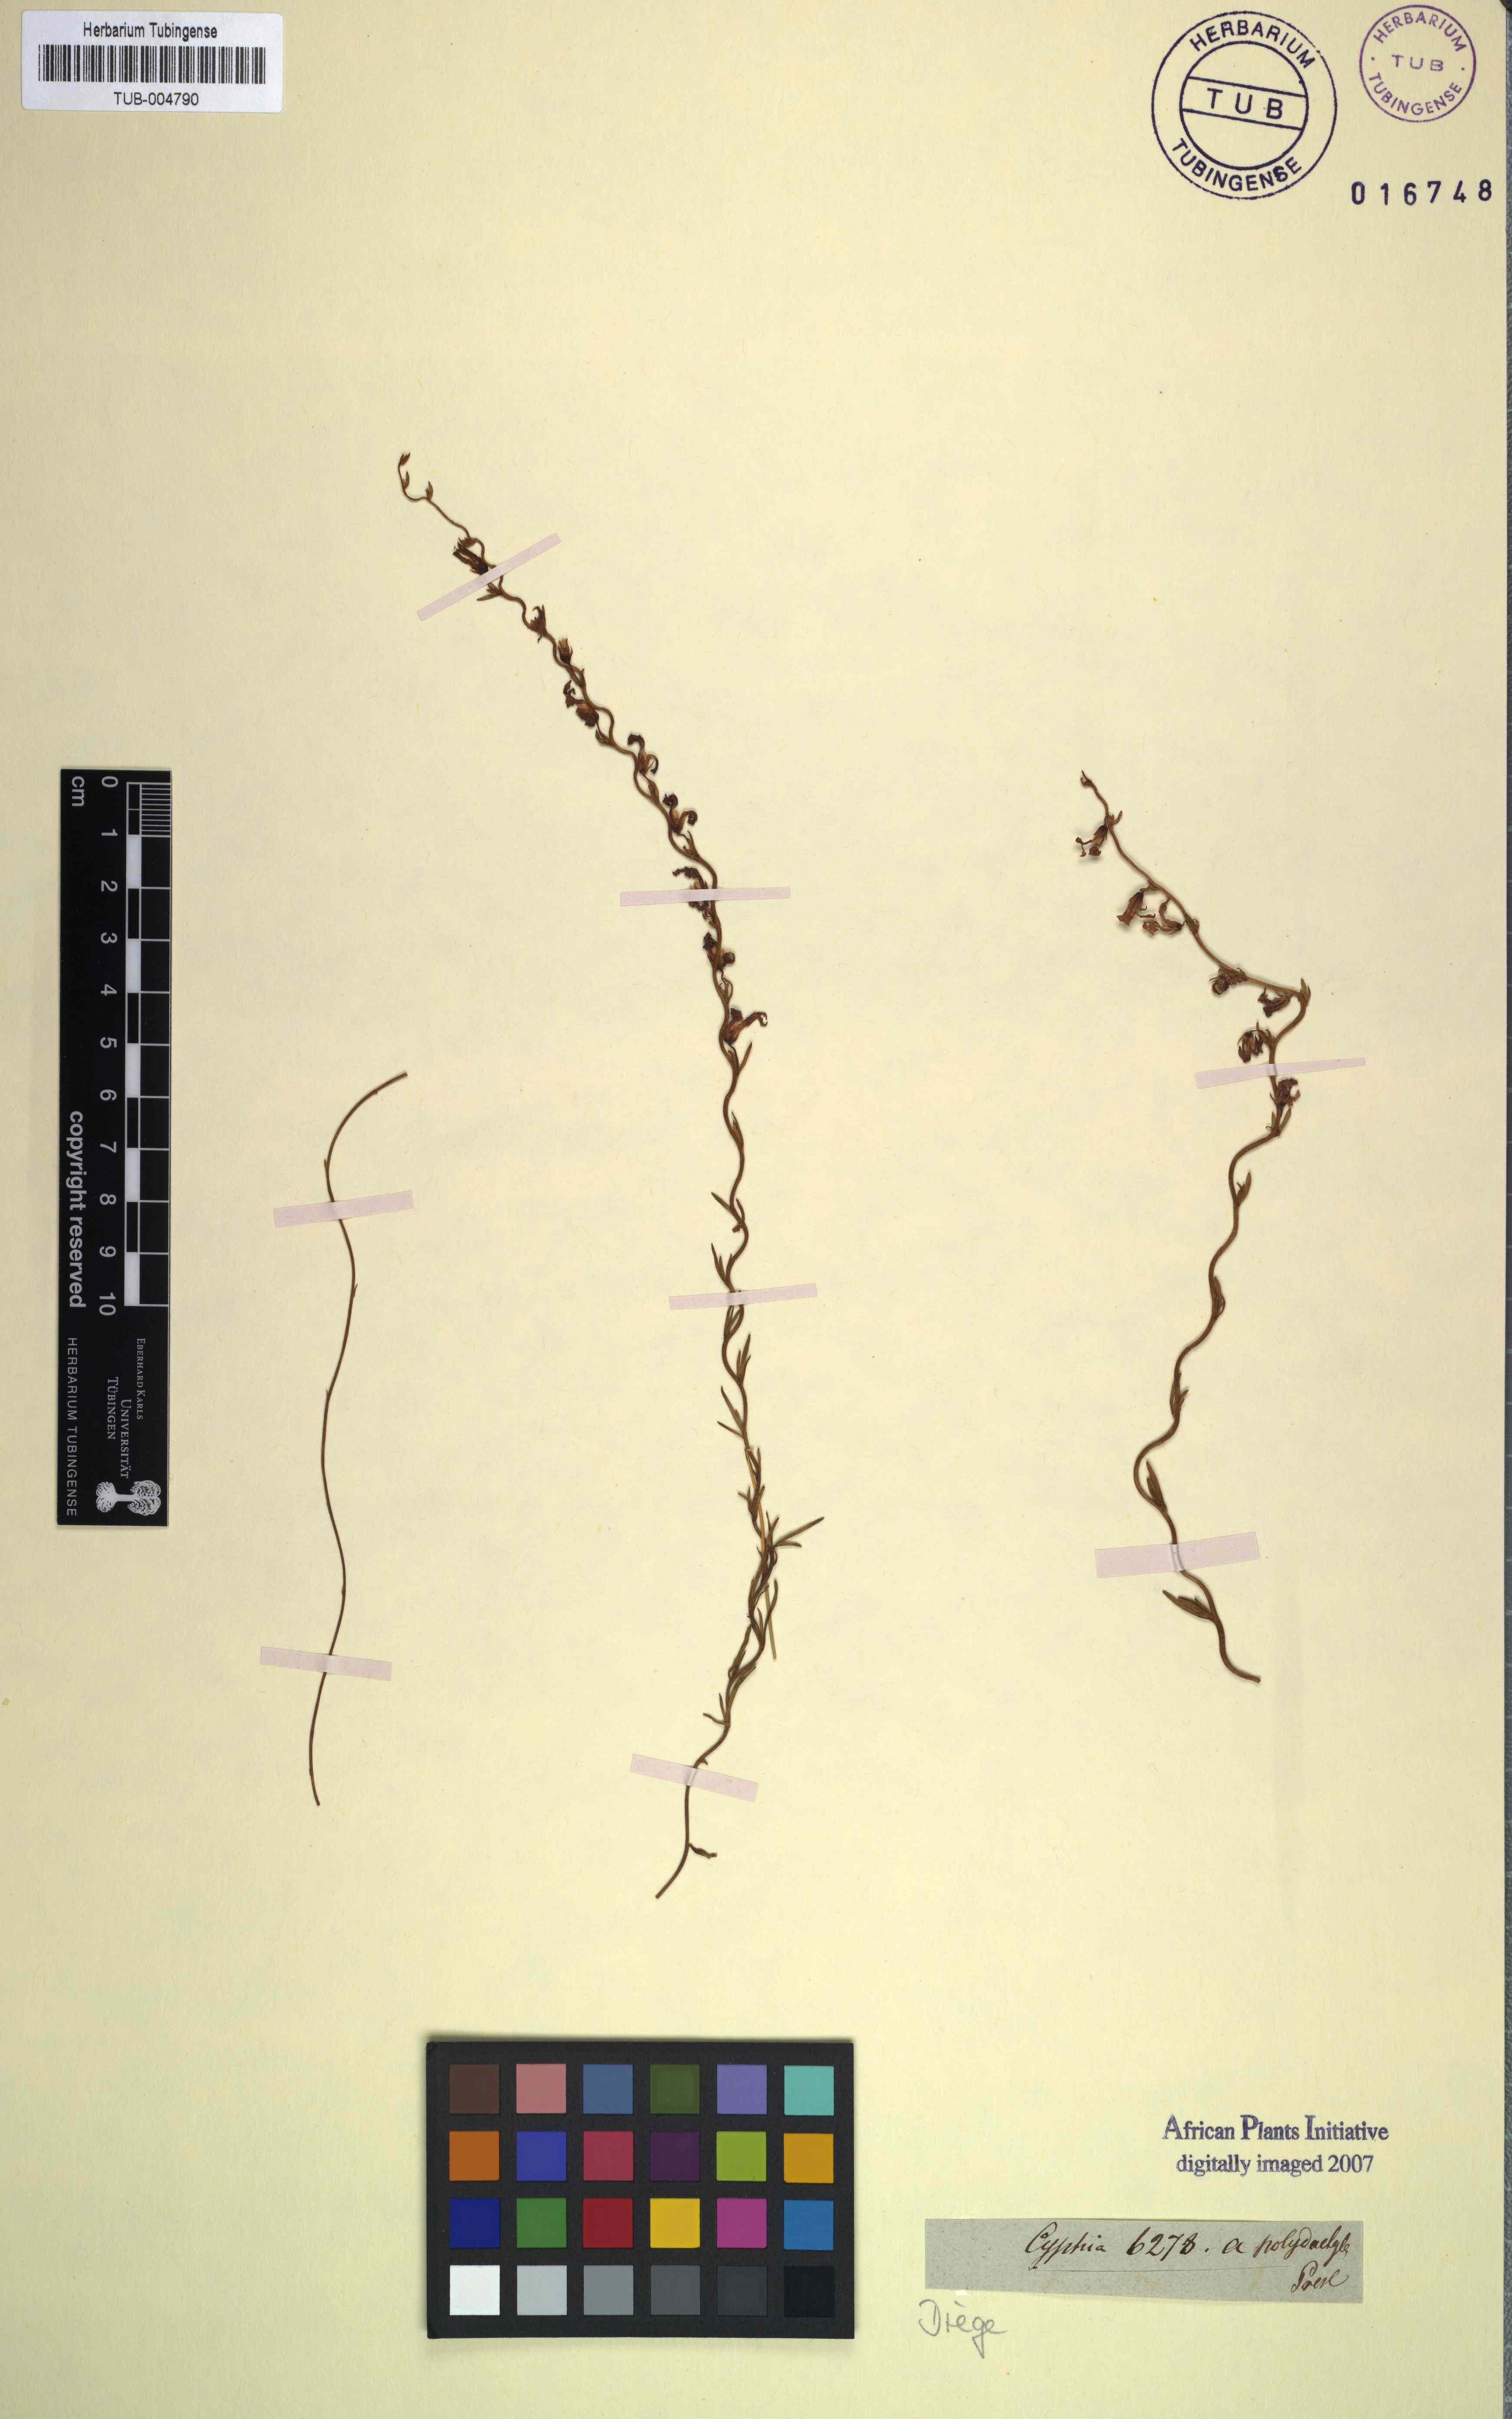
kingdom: Plantae
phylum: Tracheophyta
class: Magnoliopsida
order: Asterales
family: Campanulaceae
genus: Cyphia
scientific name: Cyphia digitata
